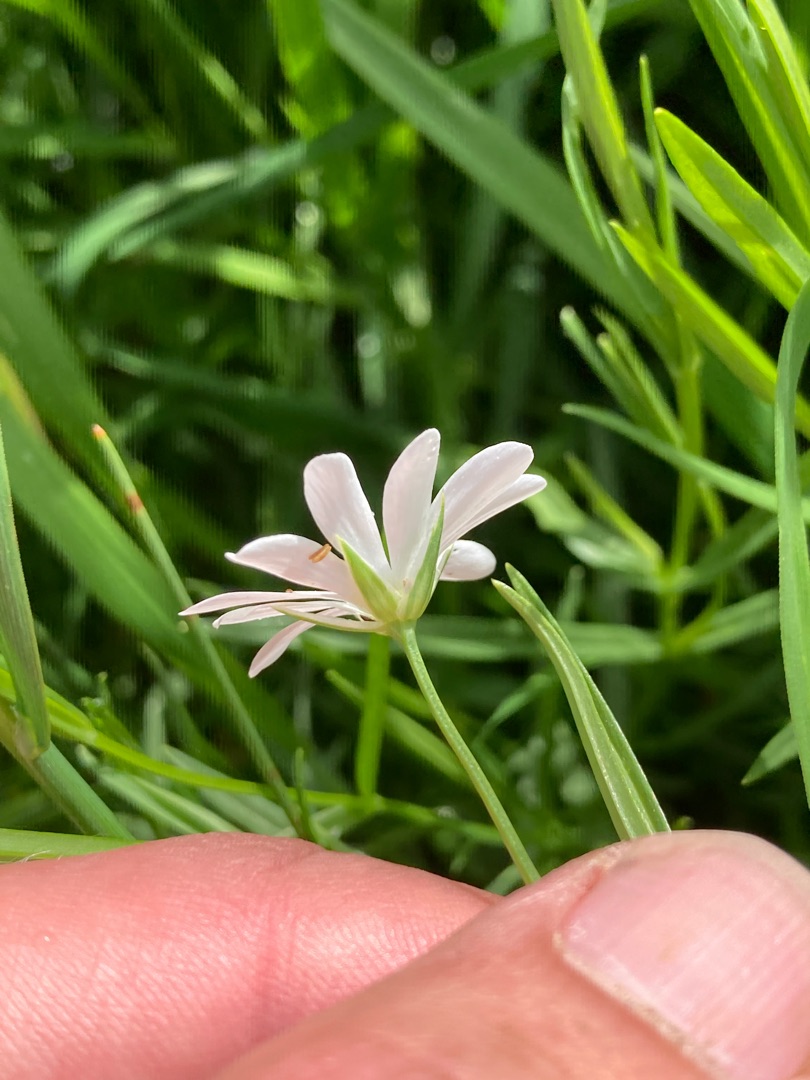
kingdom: Plantae
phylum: Tracheophyta
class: Magnoliopsida
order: Caryophyllales
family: Caryophyllaceae
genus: Stellaria
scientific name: Stellaria palustris
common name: Kær-fladstjerne
